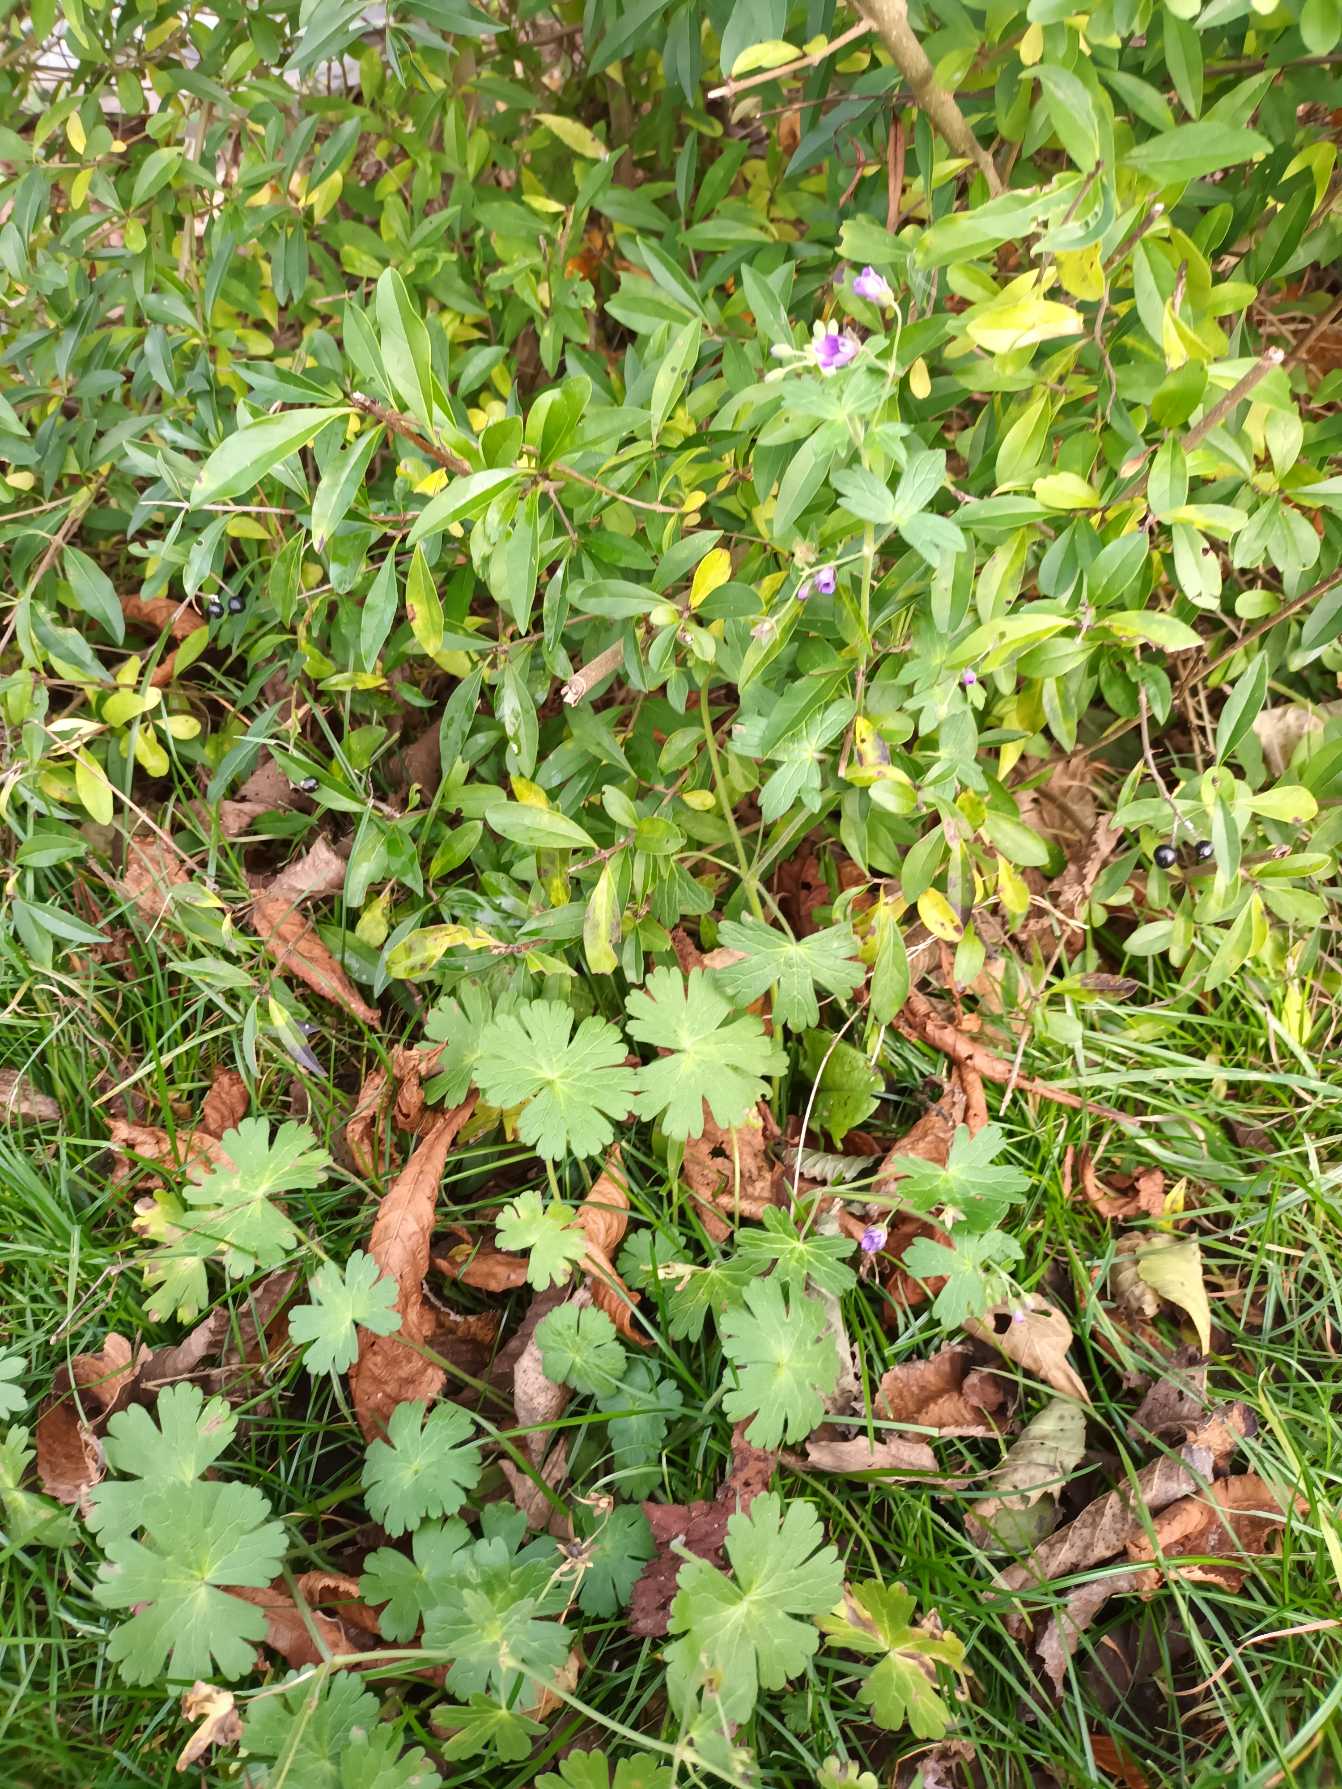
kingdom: Plantae
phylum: Tracheophyta
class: Magnoliopsida
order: Geraniales
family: Geraniaceae
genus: Geranium
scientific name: Geranium pyrenaicum
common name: Pyrenæisk storkenæb
